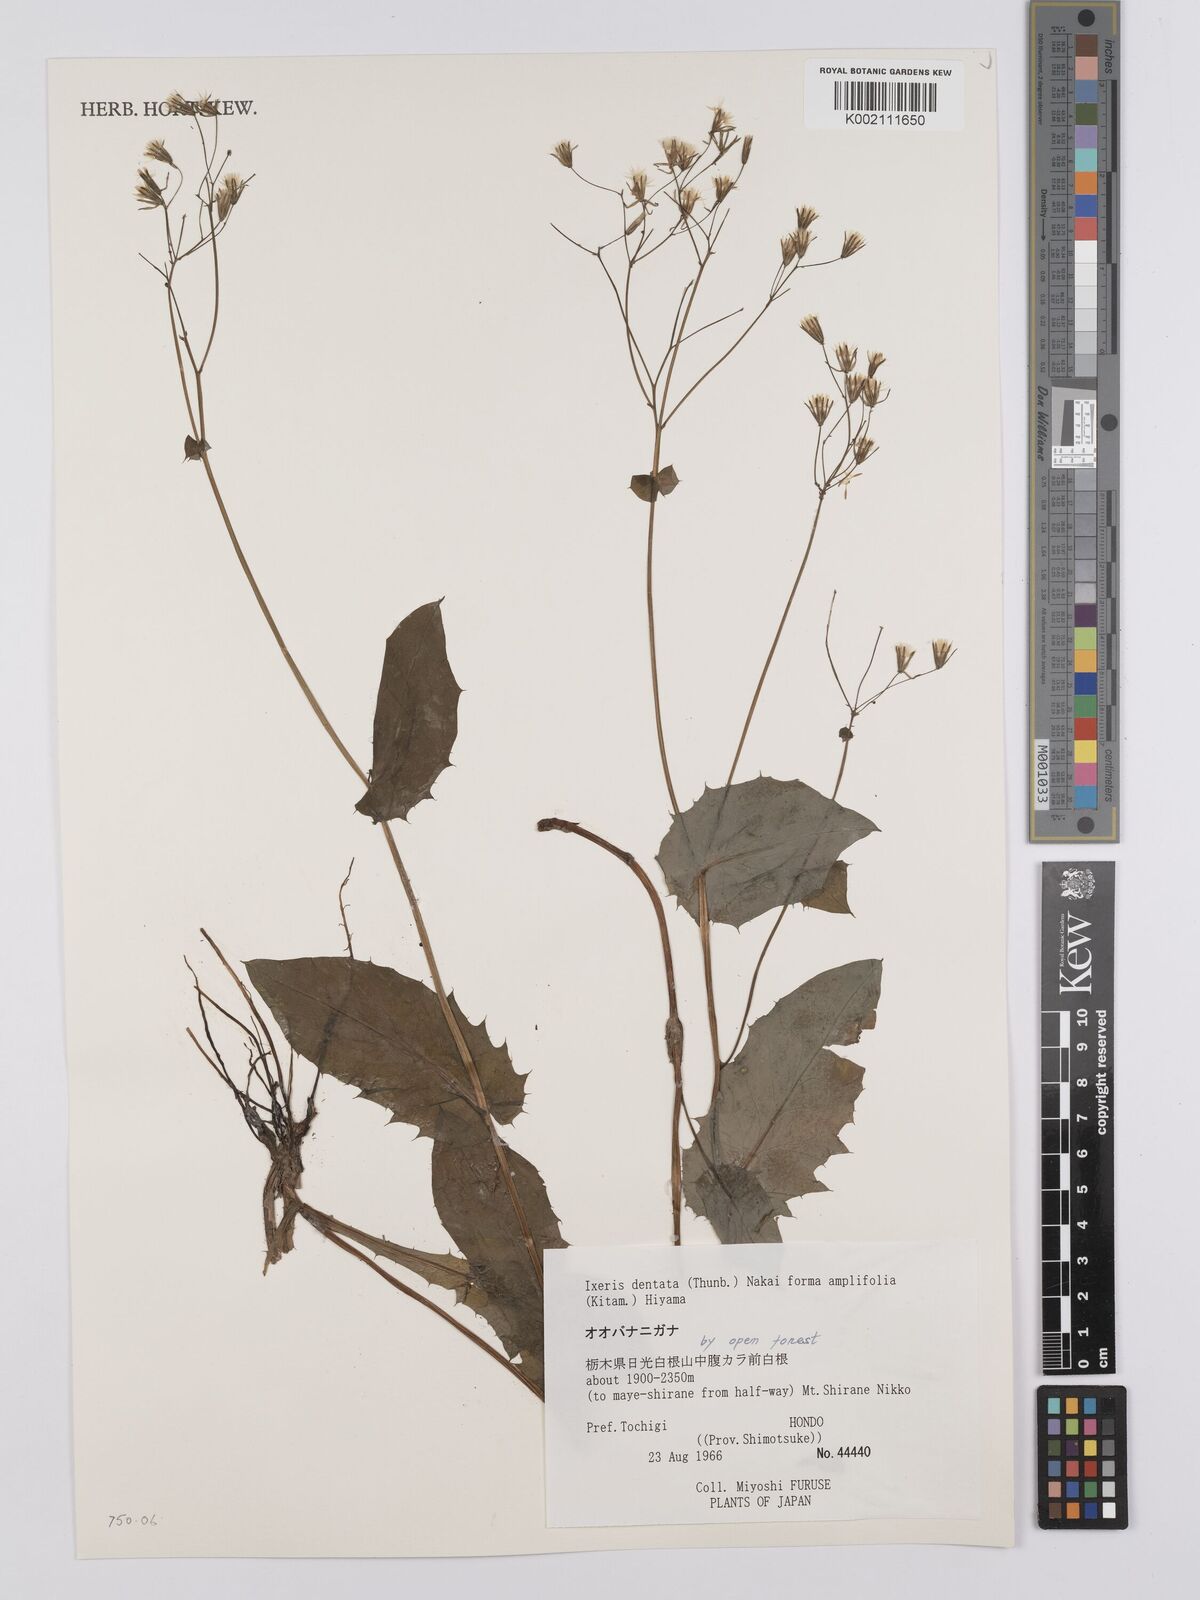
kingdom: Plantae
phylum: Tracheophyta
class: Magnoliopsida
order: Asterales
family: Asteraceae
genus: Ixeridium
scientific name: Ixeridium dentatum
